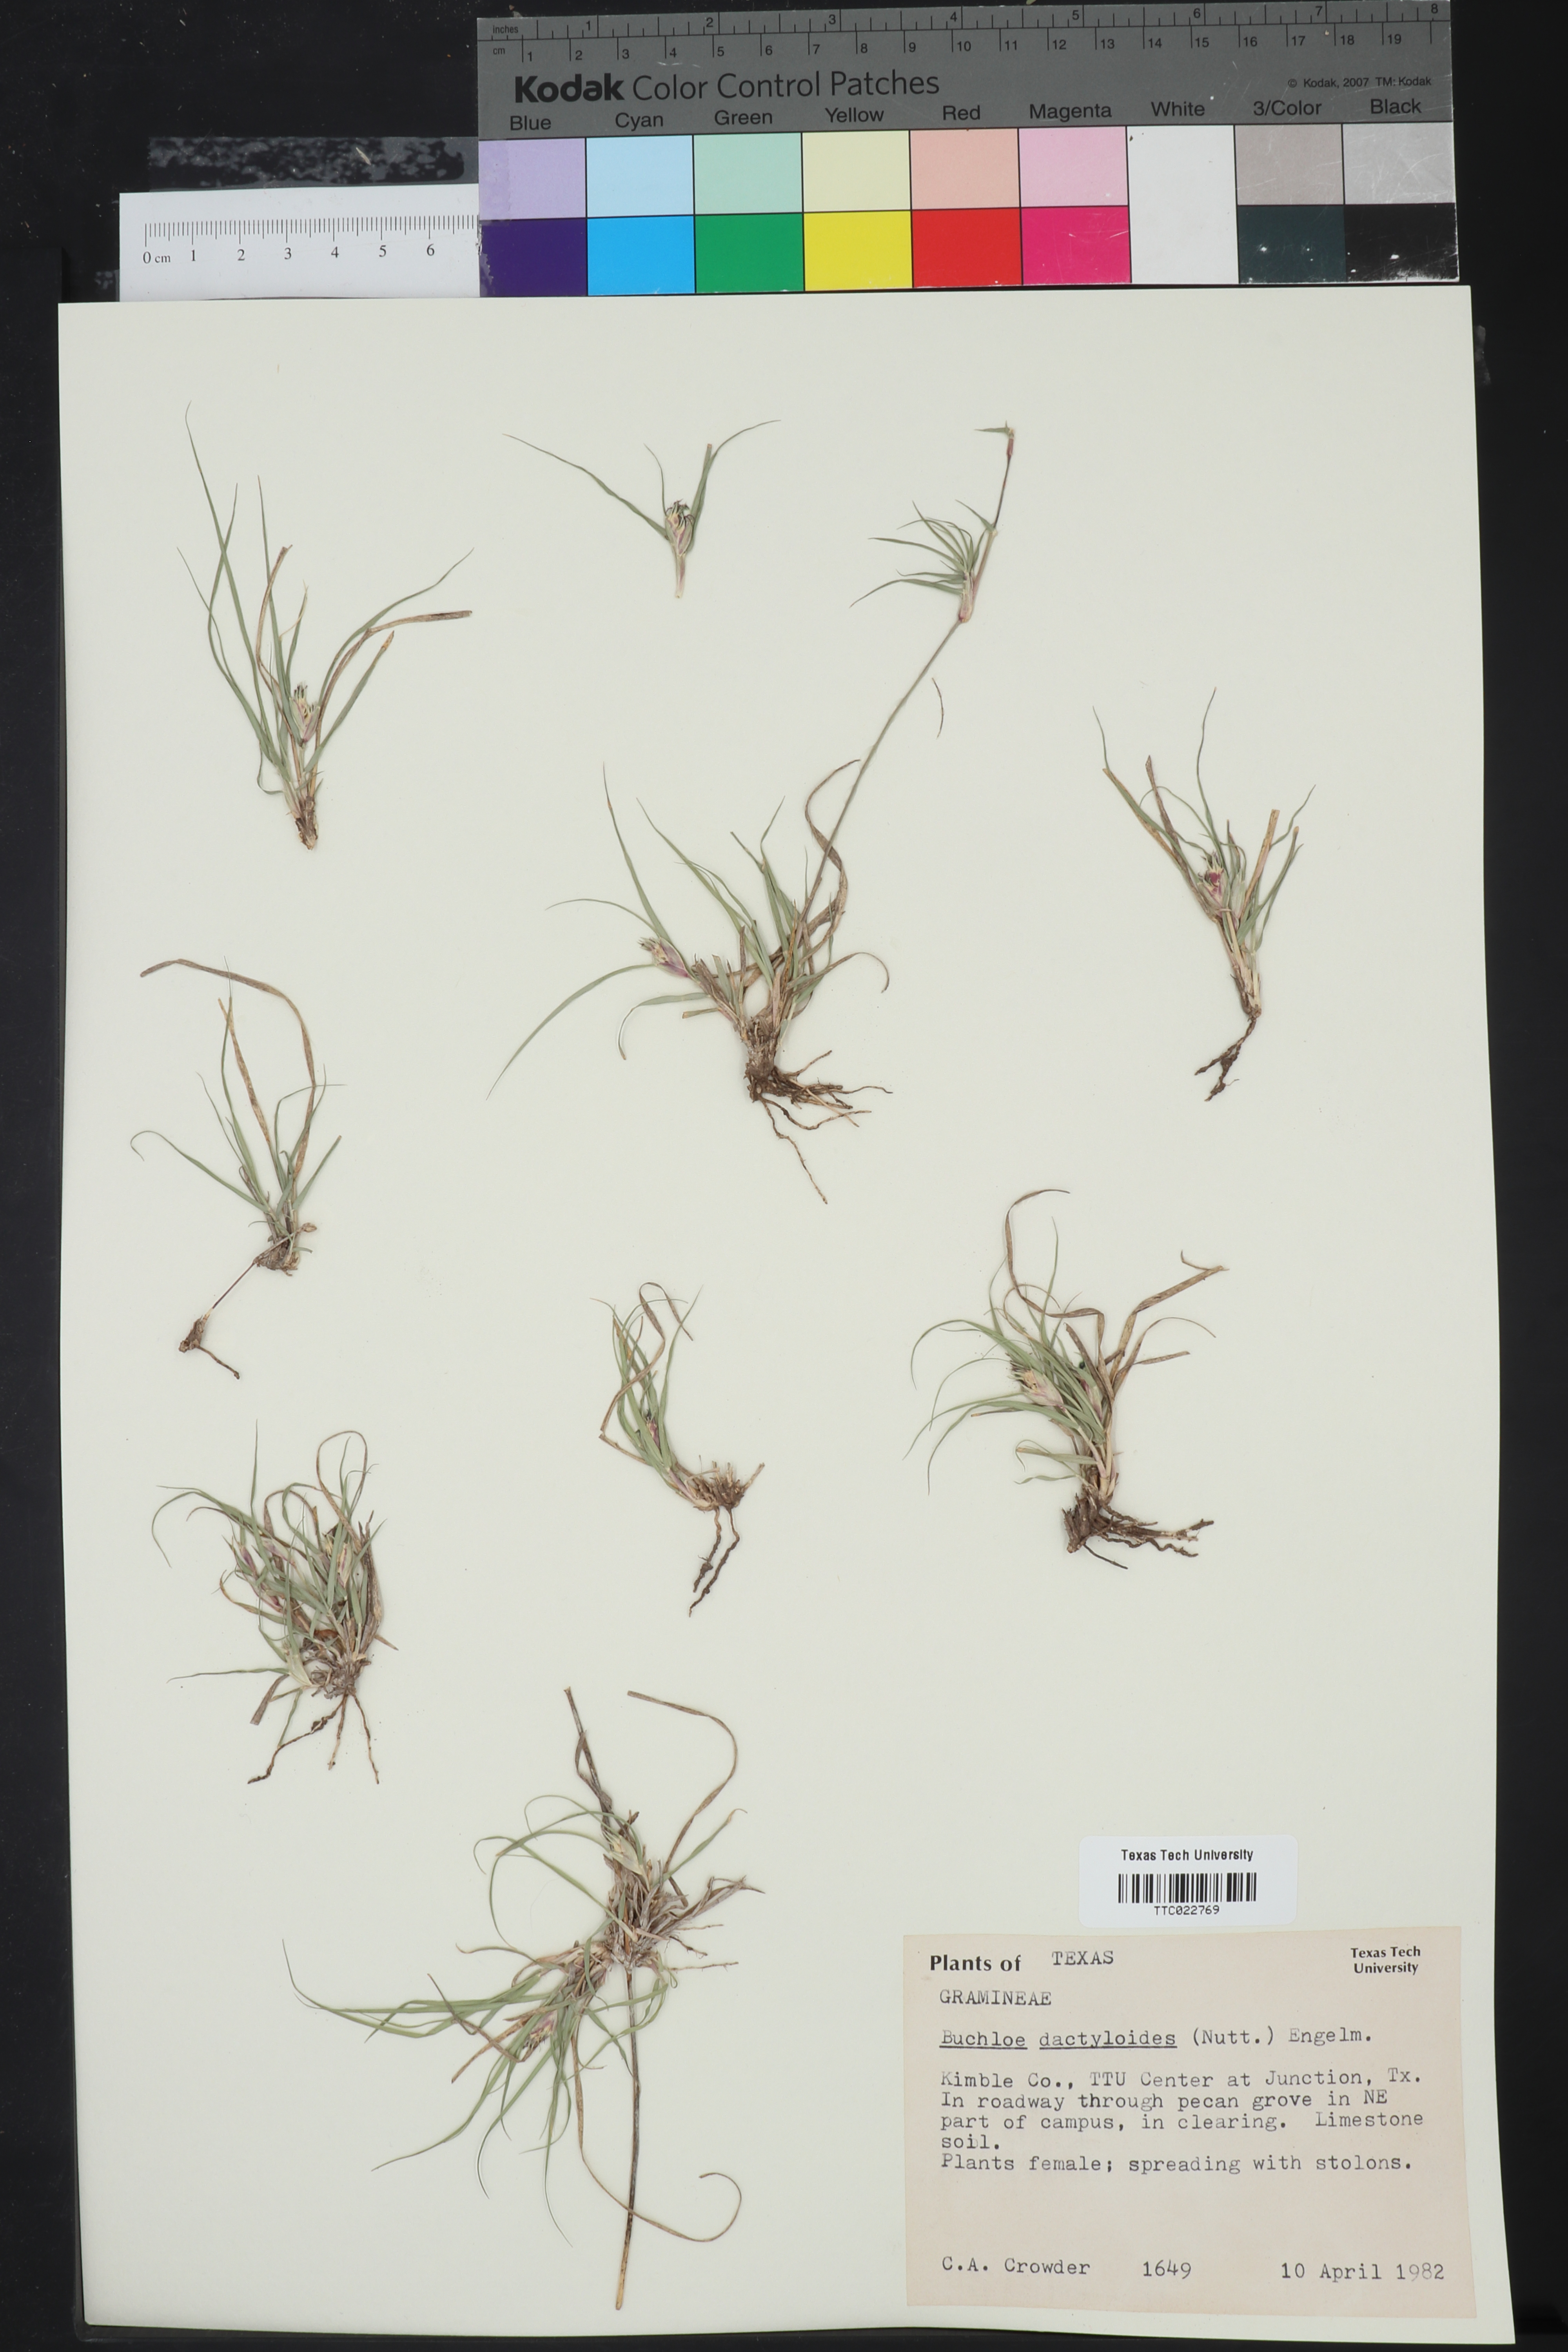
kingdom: Plantae
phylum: Tracheophyta
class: Liliopsida
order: Poales
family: Poaceae
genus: Bouteloua
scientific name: Bouteloua dactyloides
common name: Buffalo grass
